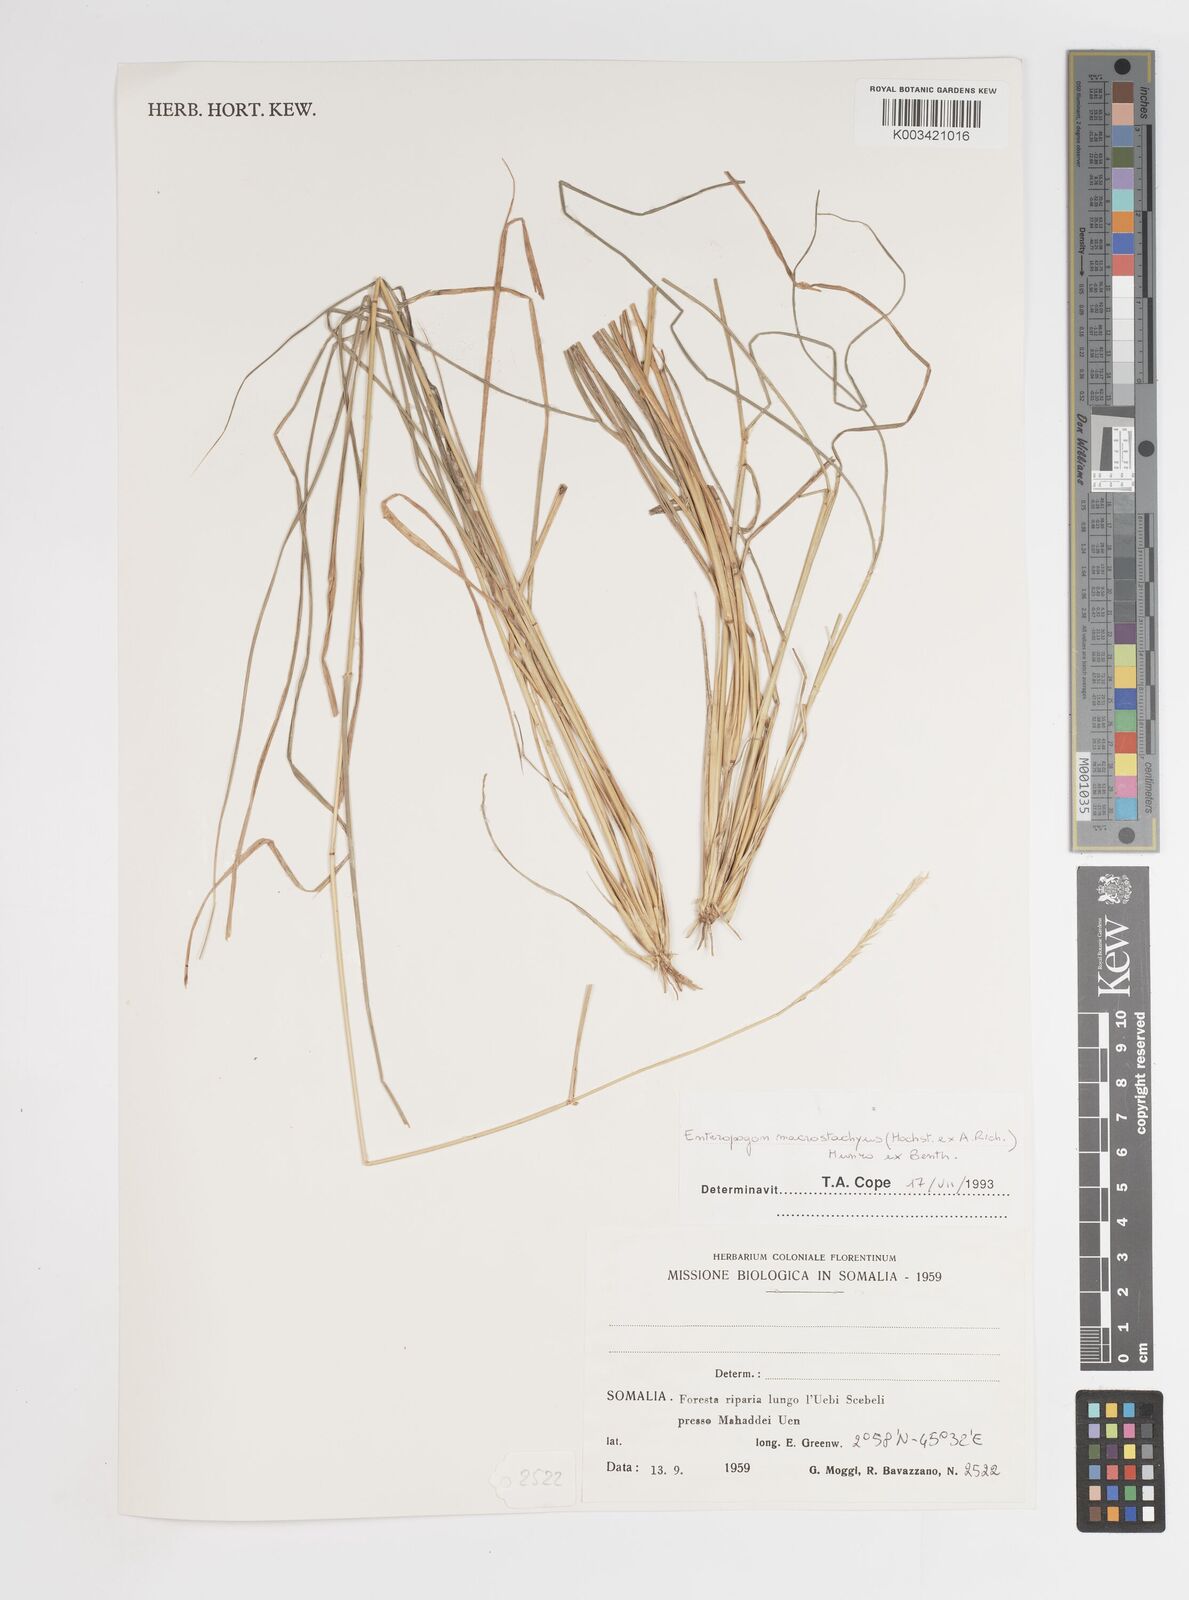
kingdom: Plantae
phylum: Tracheophyta
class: Liliopsida
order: Poales
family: Poaceae
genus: Enteropogon
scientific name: Enteropogon macrostachyus
